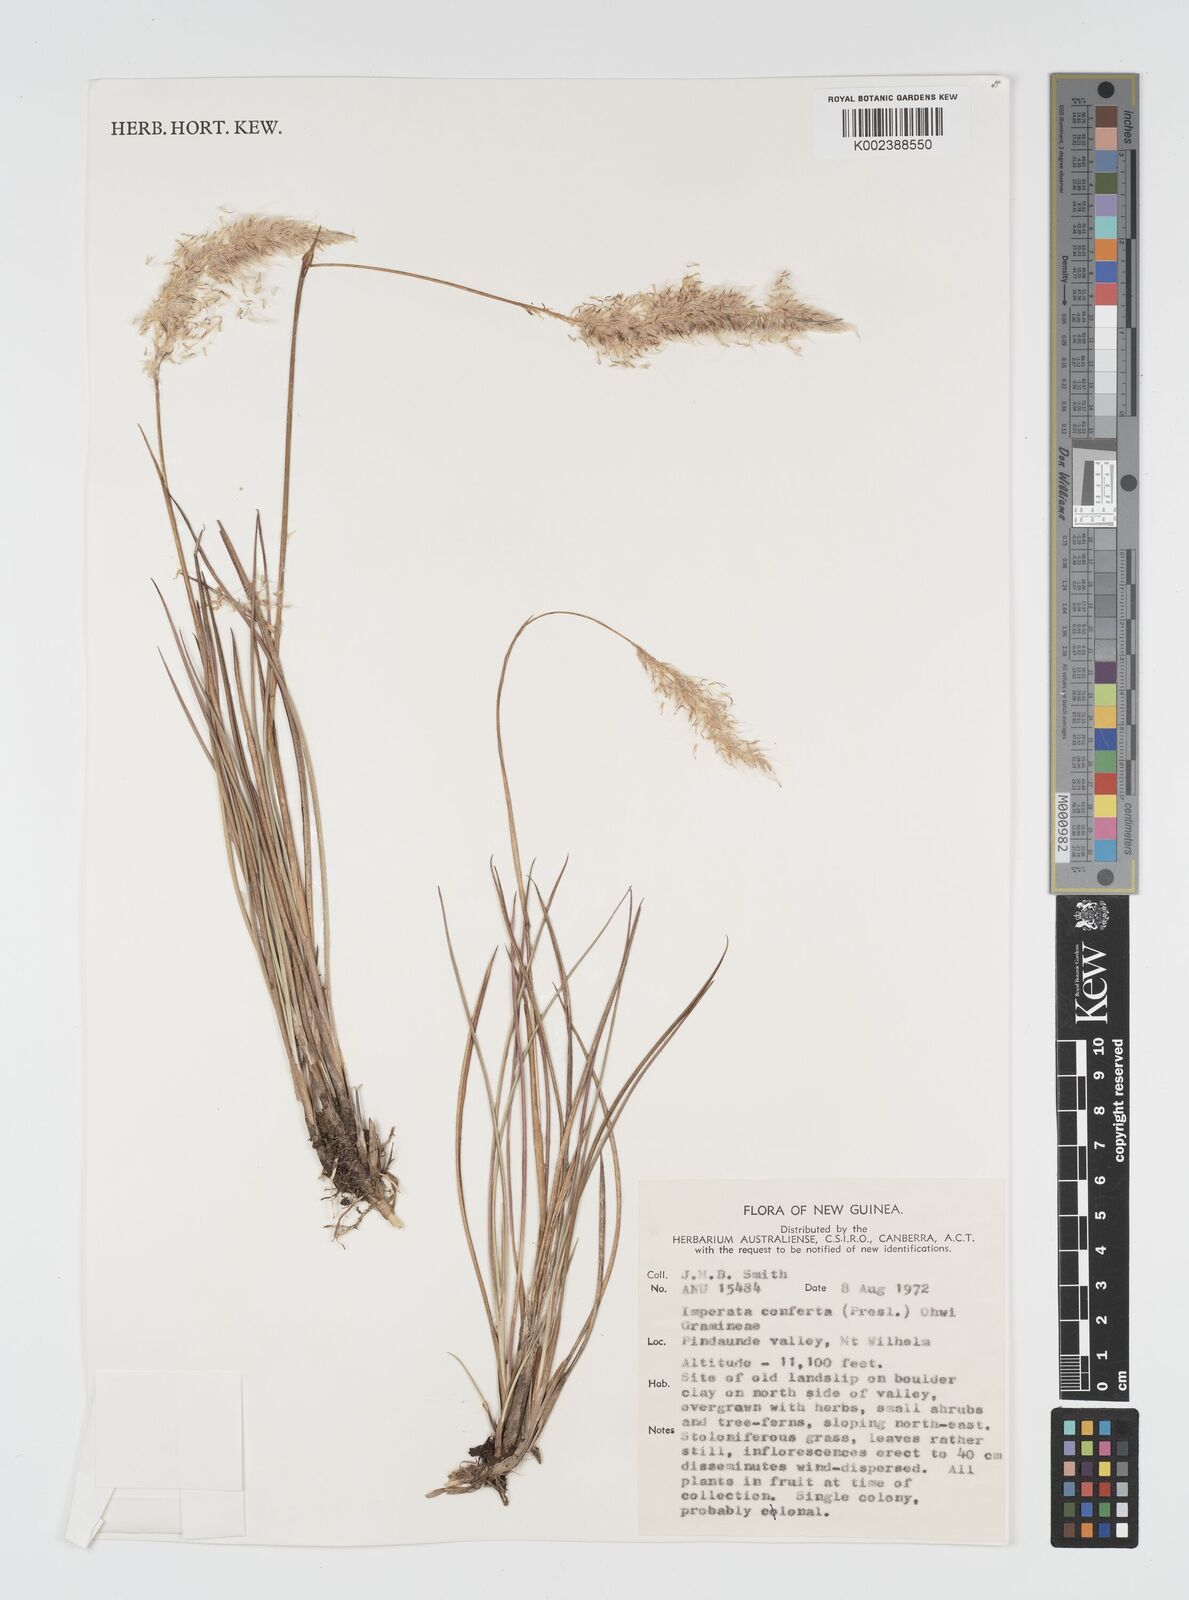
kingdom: Plantae
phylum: Tracheophyta
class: Liliopsida
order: Poales
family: Poaceae
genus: Imperata
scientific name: Imperata conferta
